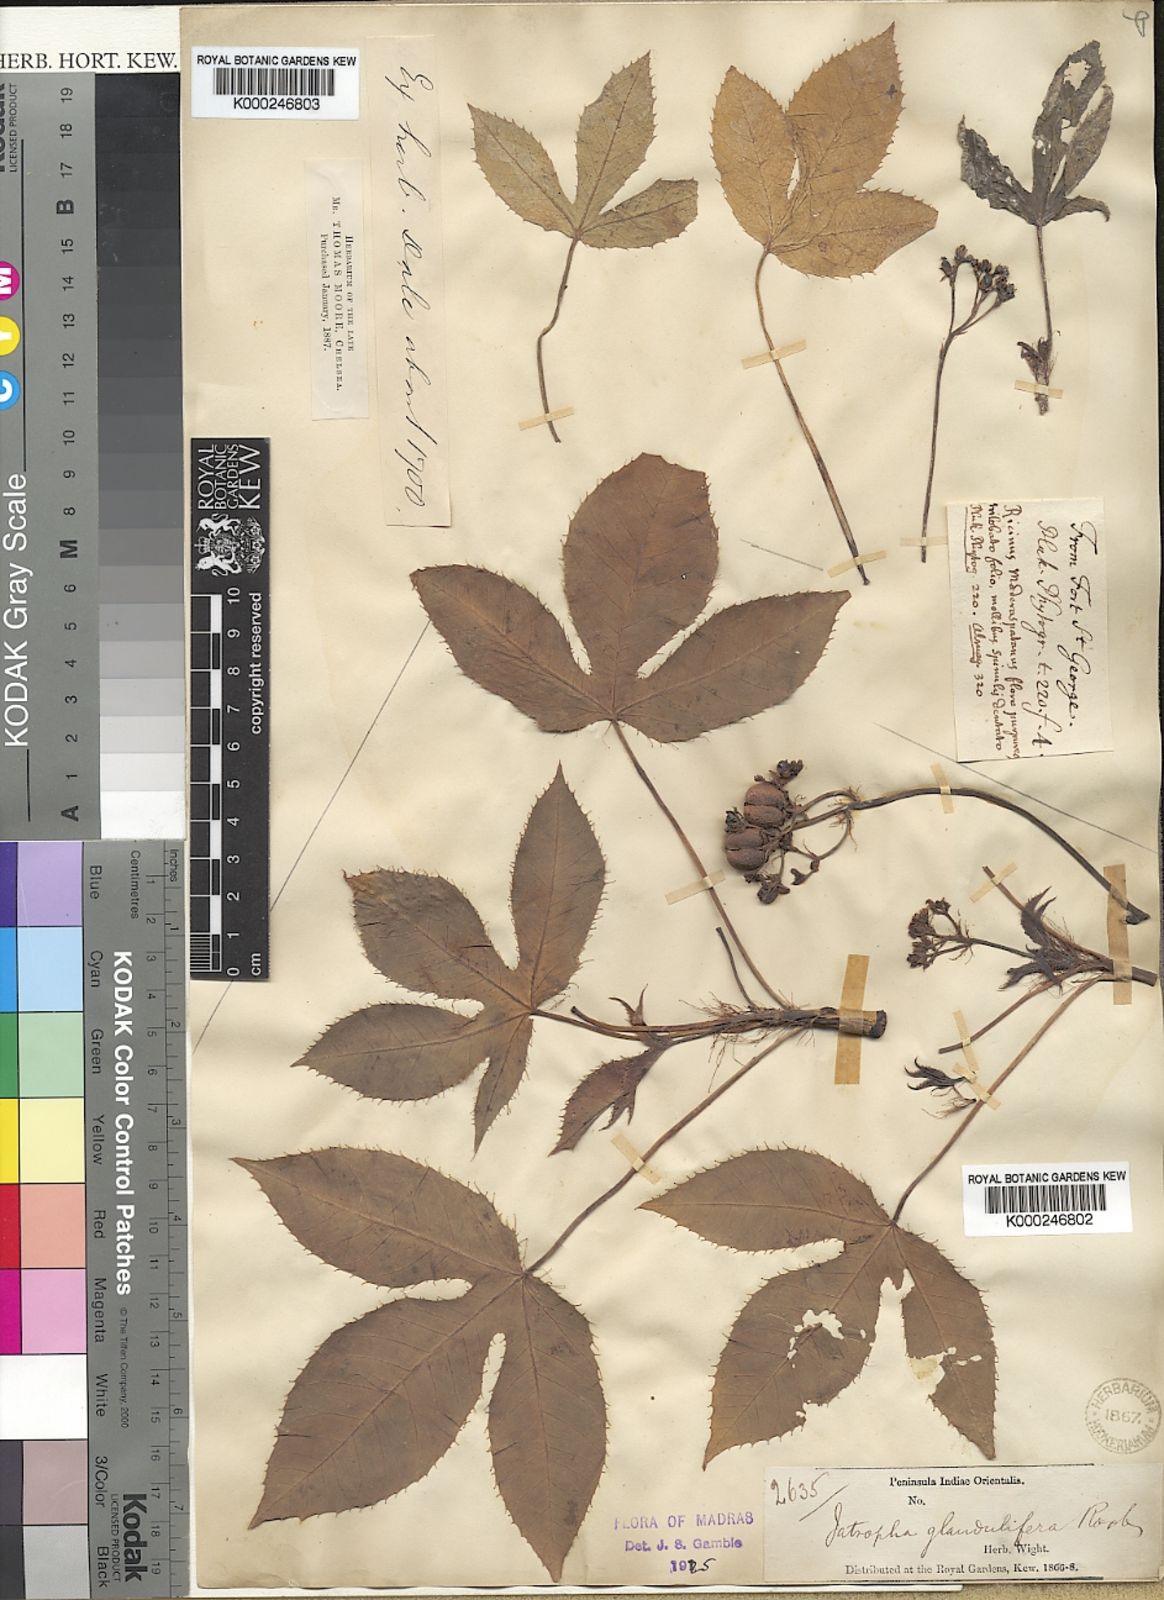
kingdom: Plantae
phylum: Tracheophyta
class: Magnoliopsida
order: Malpighiales
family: Euphorbiaceae
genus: Jatropha
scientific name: Jatropha glandulifera
